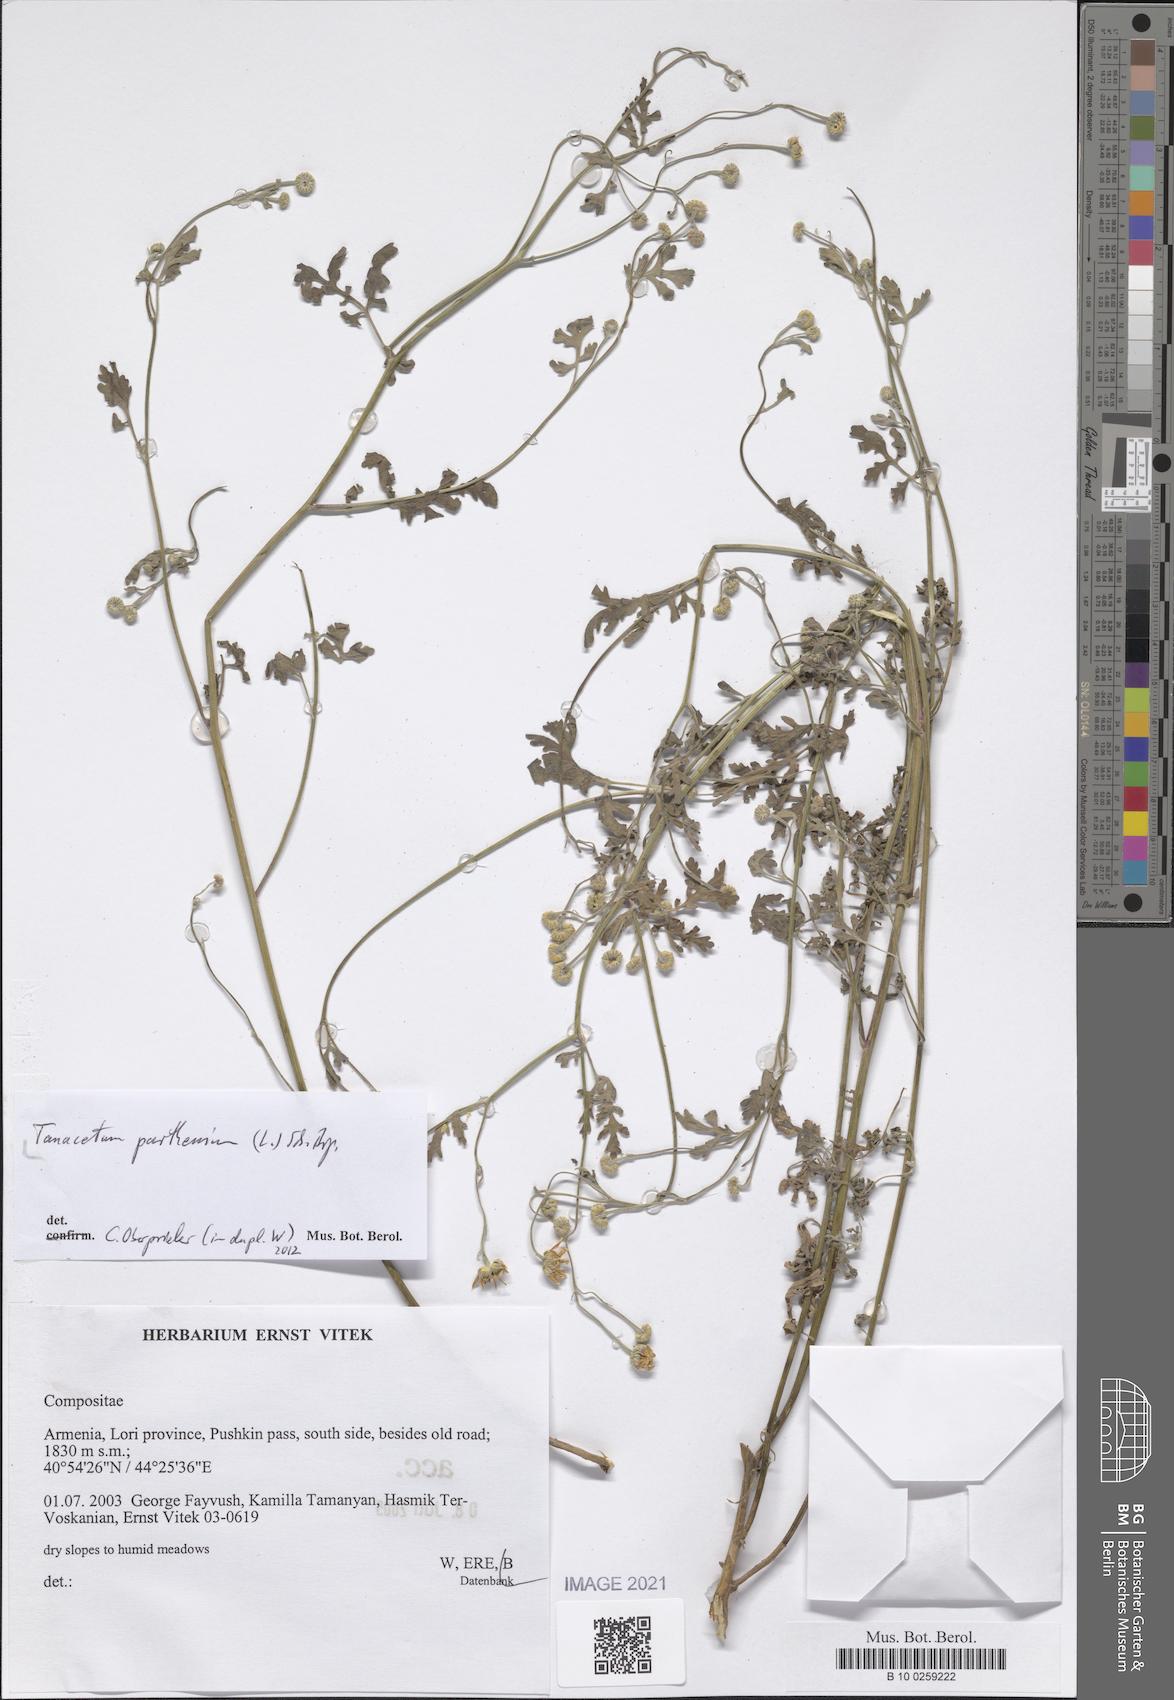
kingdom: Plantae
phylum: Tracheophyta
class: Magnoliopsida
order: Asterales
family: Asteraceae
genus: Tanacetum
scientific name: Tanacetum parthenium
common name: Feverfew
